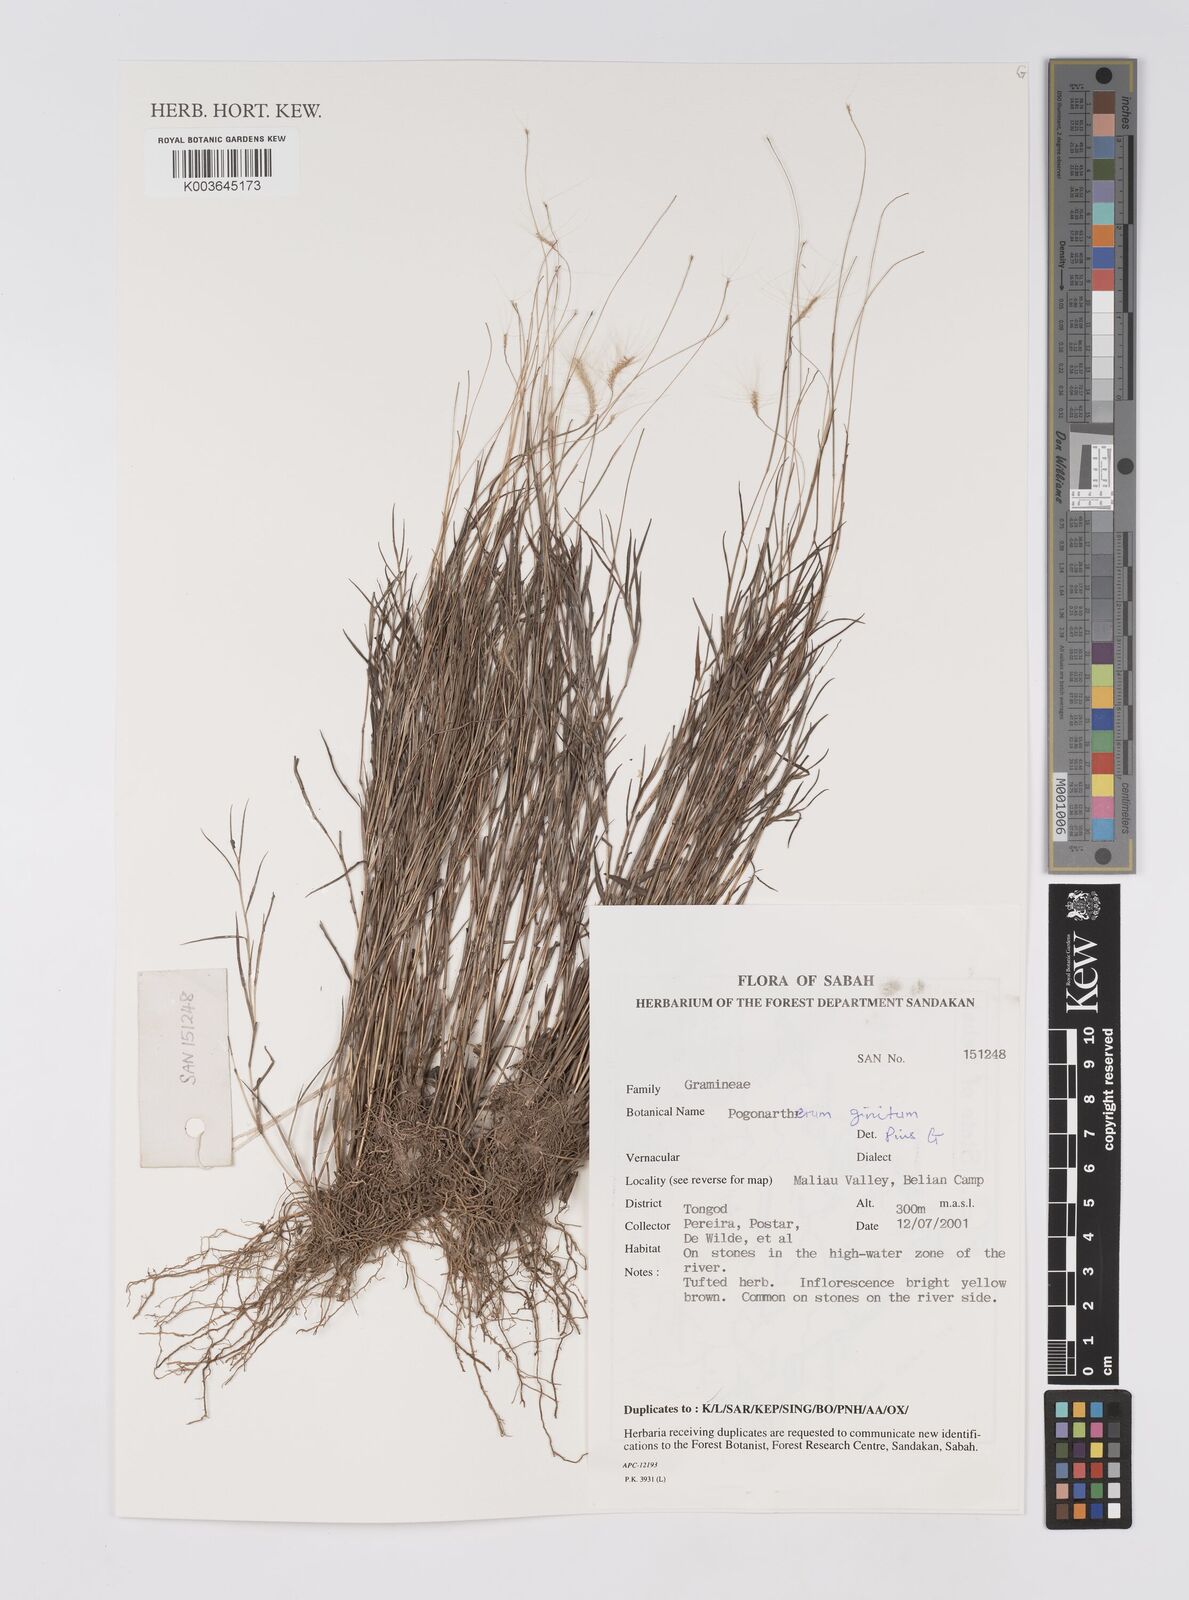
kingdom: Plantae
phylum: Tracheophyta
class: Liliopsida
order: Poales
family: Poaceae
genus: Pogonatherum
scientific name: Pogonatherum crinitum
